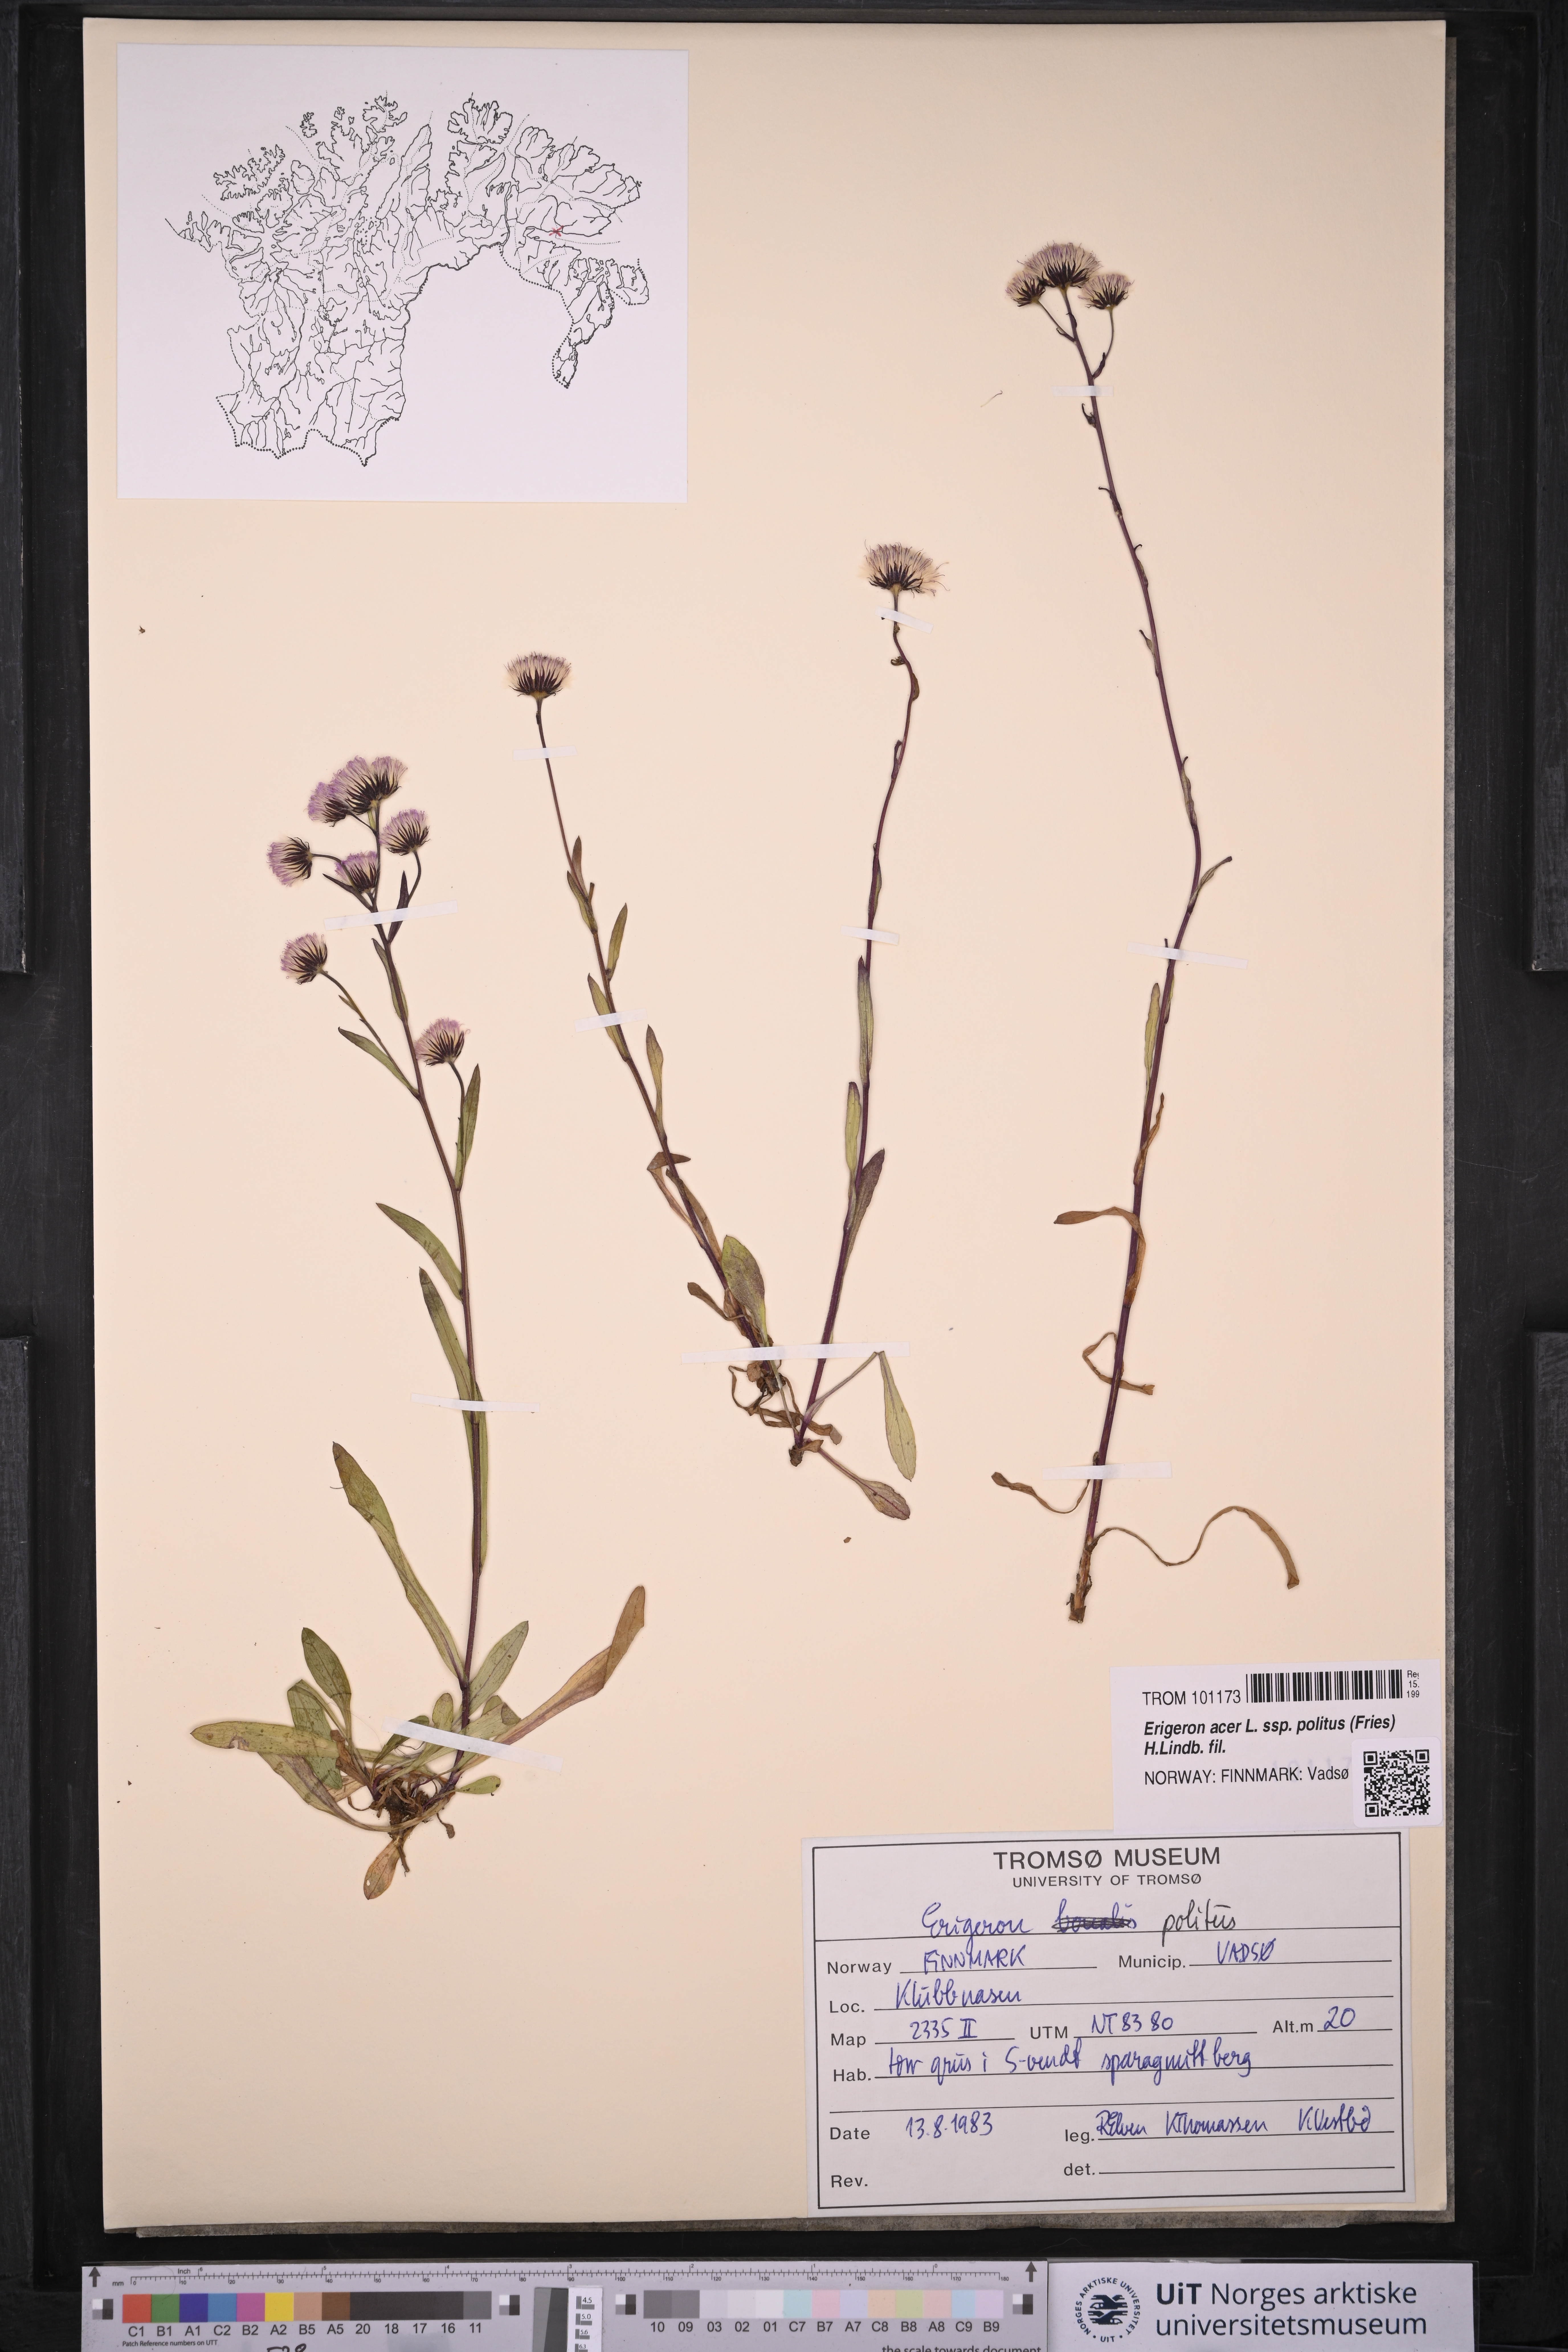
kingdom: Plantae
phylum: Tracheophyta
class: Magnoliopsida
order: Asterales
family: Asteraceae
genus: Erigeron
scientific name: Erigeron politus
